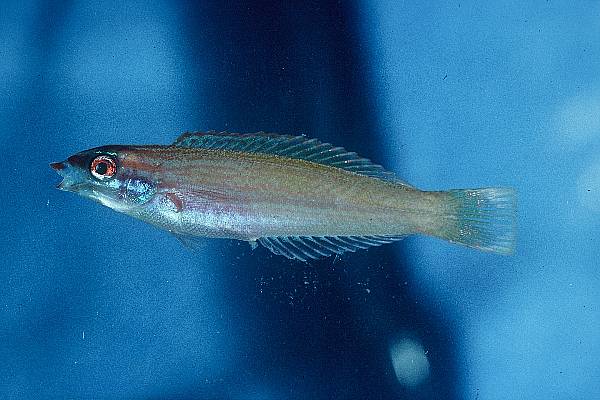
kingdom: Animalia
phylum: Chordata
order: Perciformes
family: Labridae
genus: Pseudocoris
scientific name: Pseudocoris yamashiroi
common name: Redspot wrasse
